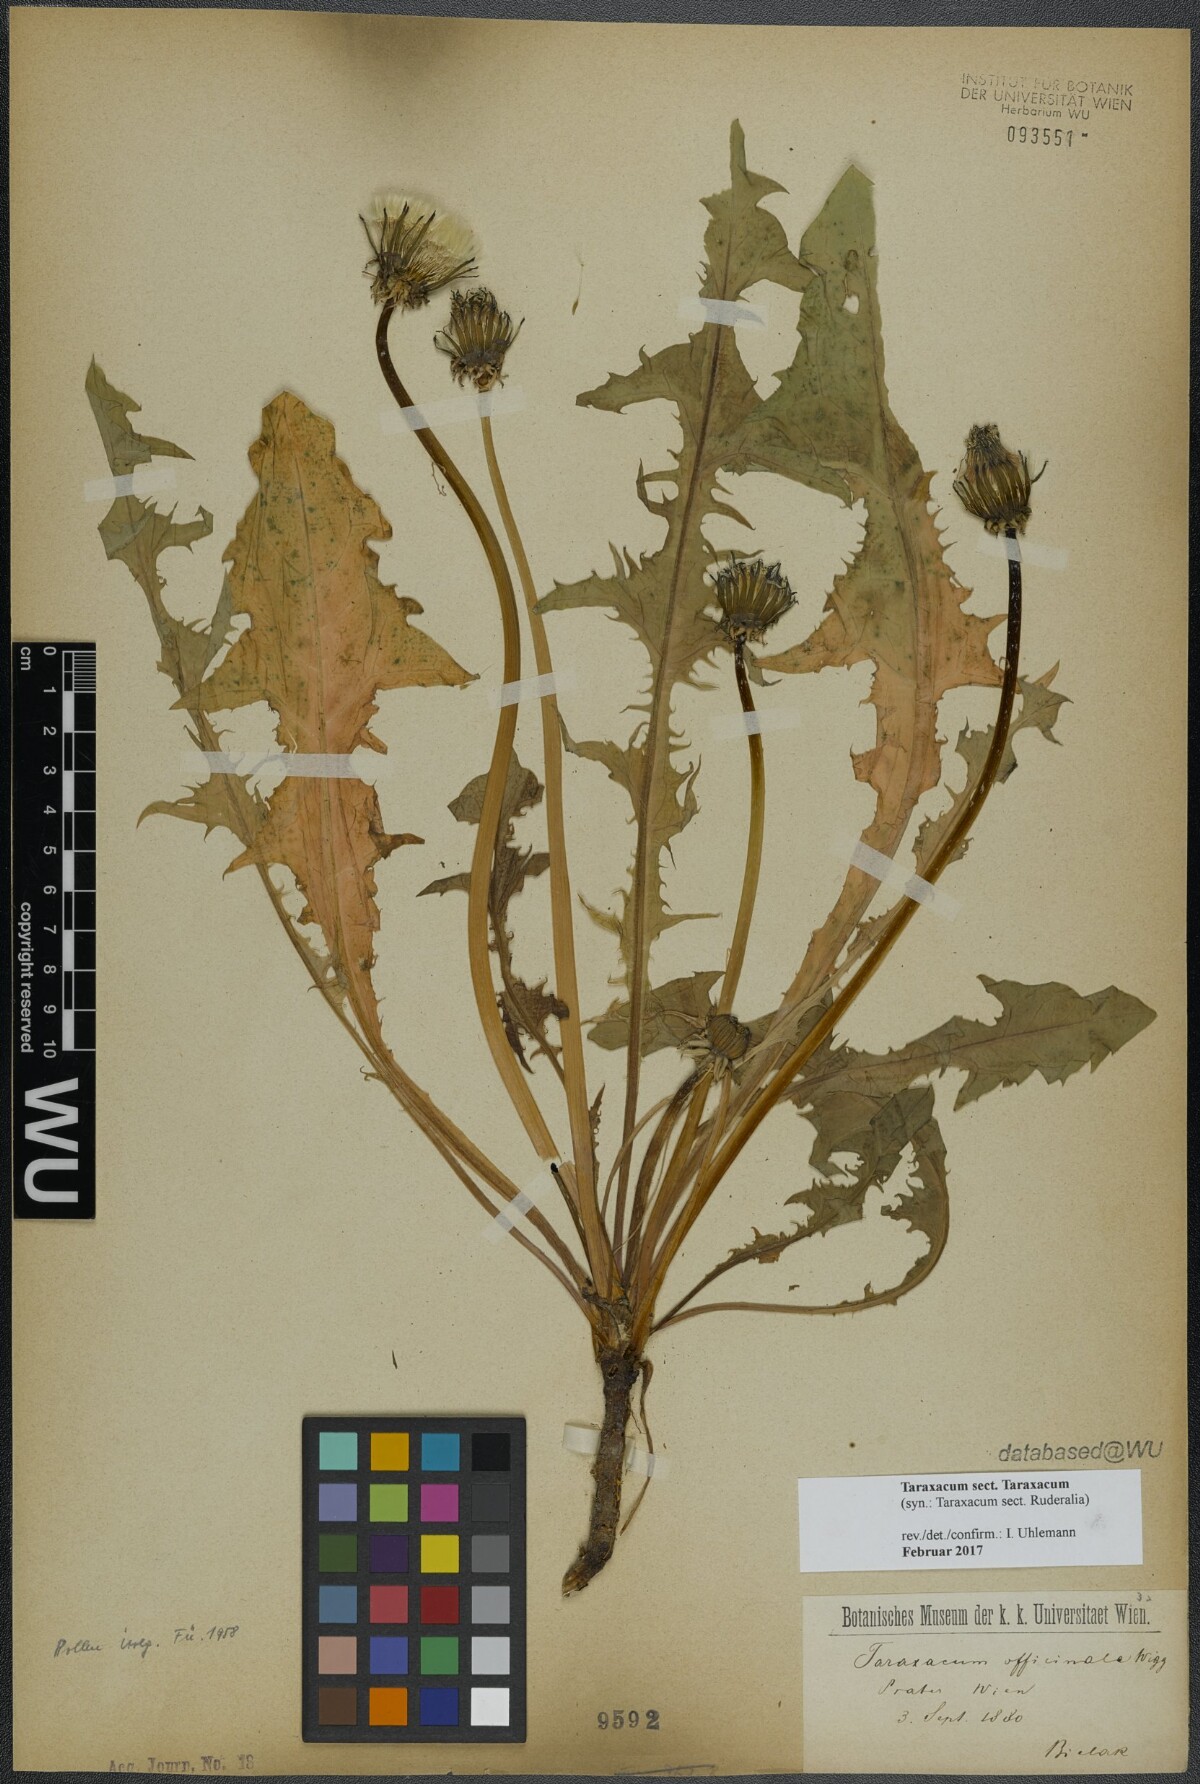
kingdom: Plantae
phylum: Tracheophyta
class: Magnoliopsida
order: Asterales
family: Asteraceae
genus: Taraxacum
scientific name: Taraxacum
